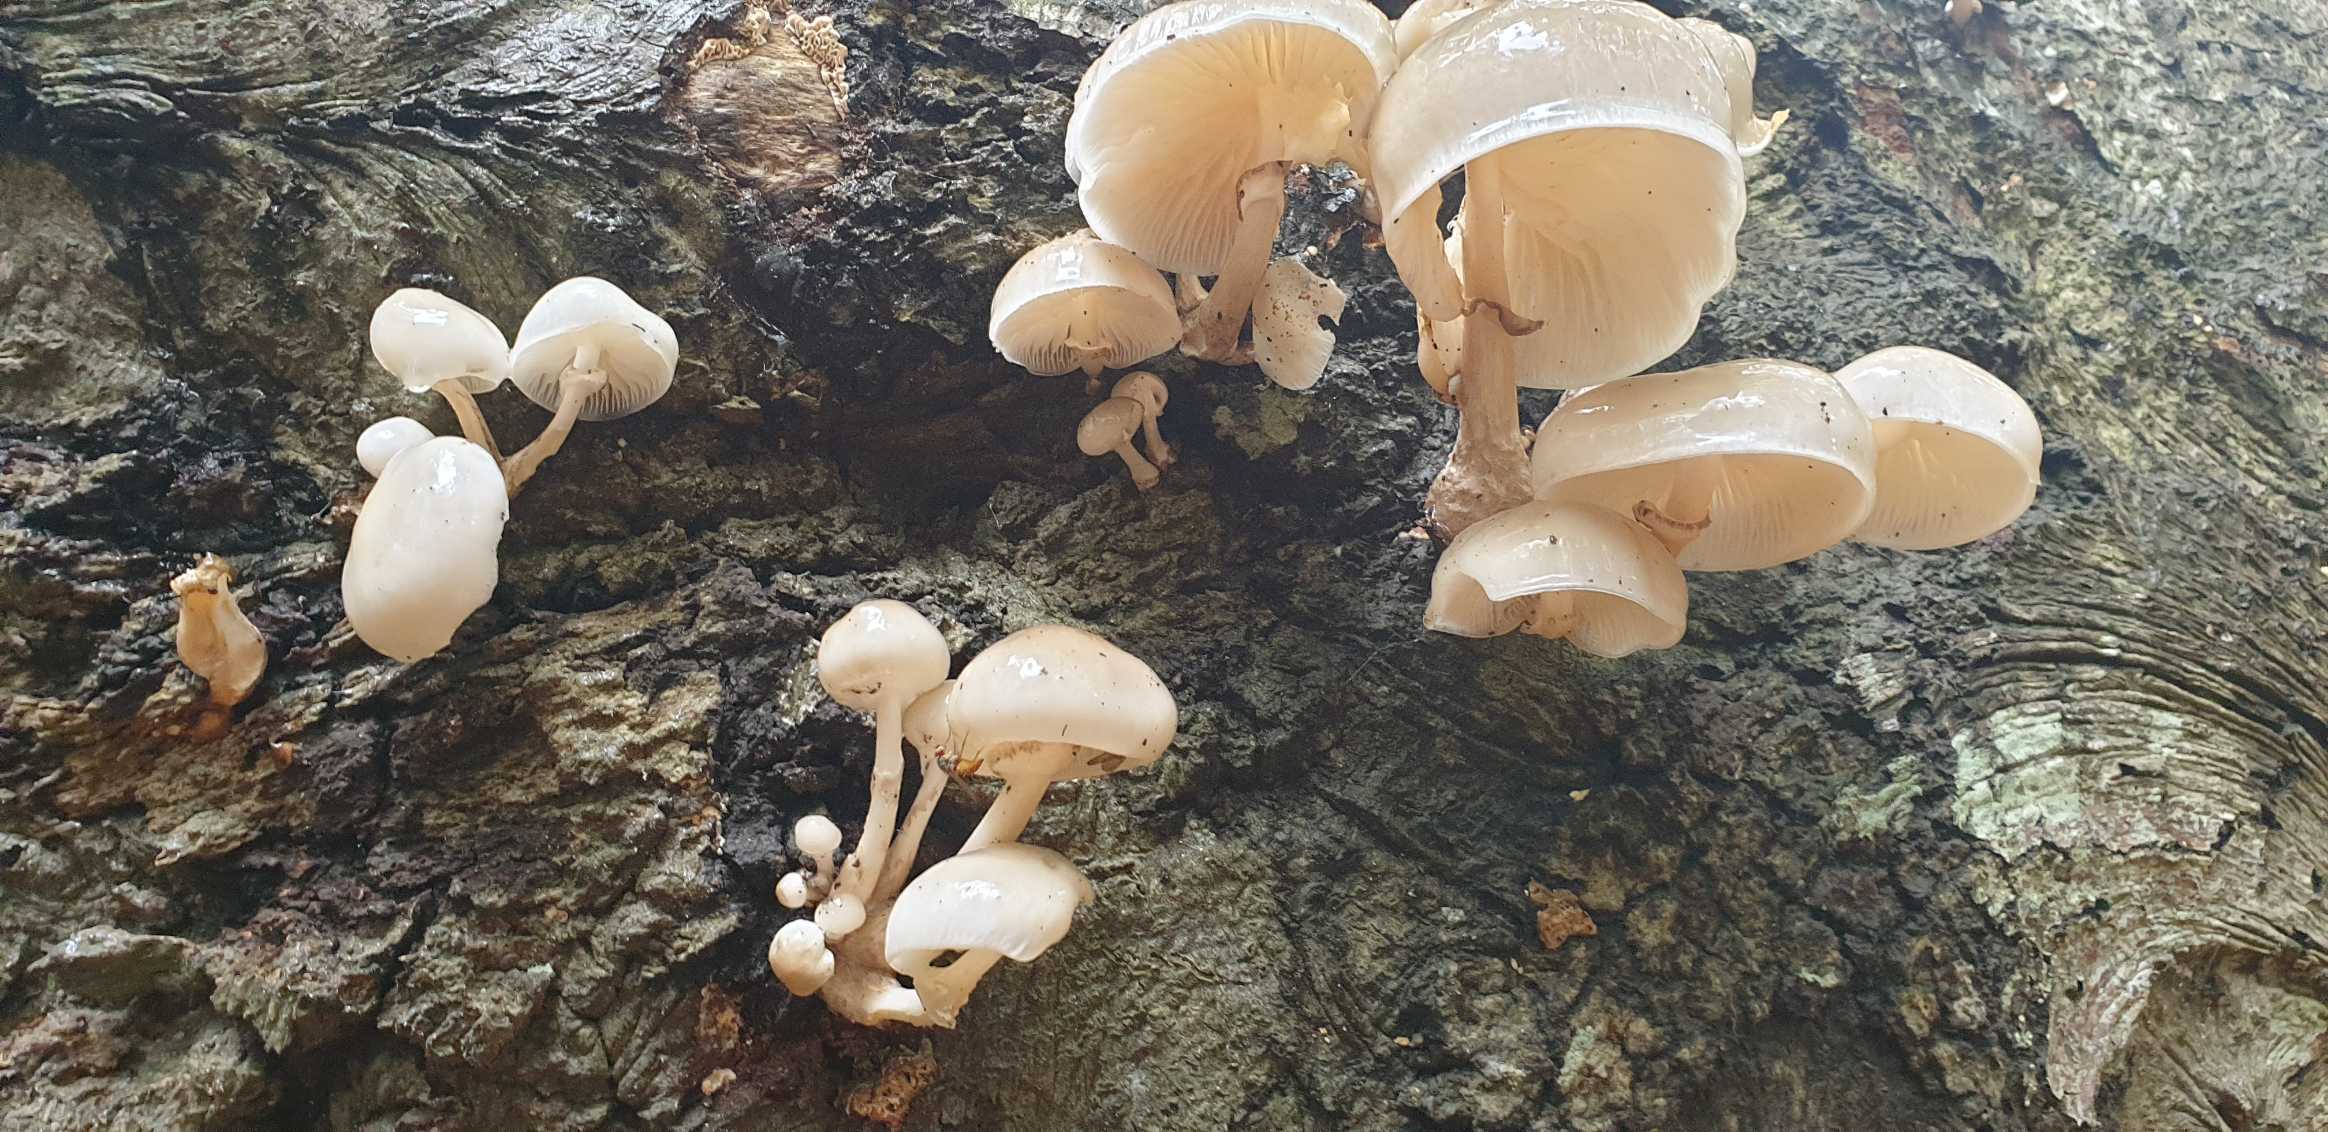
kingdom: Fungi
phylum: Basidiomycota
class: Agaricomycetes
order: Agaricales
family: Physalacriaceae
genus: Mucidula
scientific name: Mucidula mucida
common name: Porcelænshat
